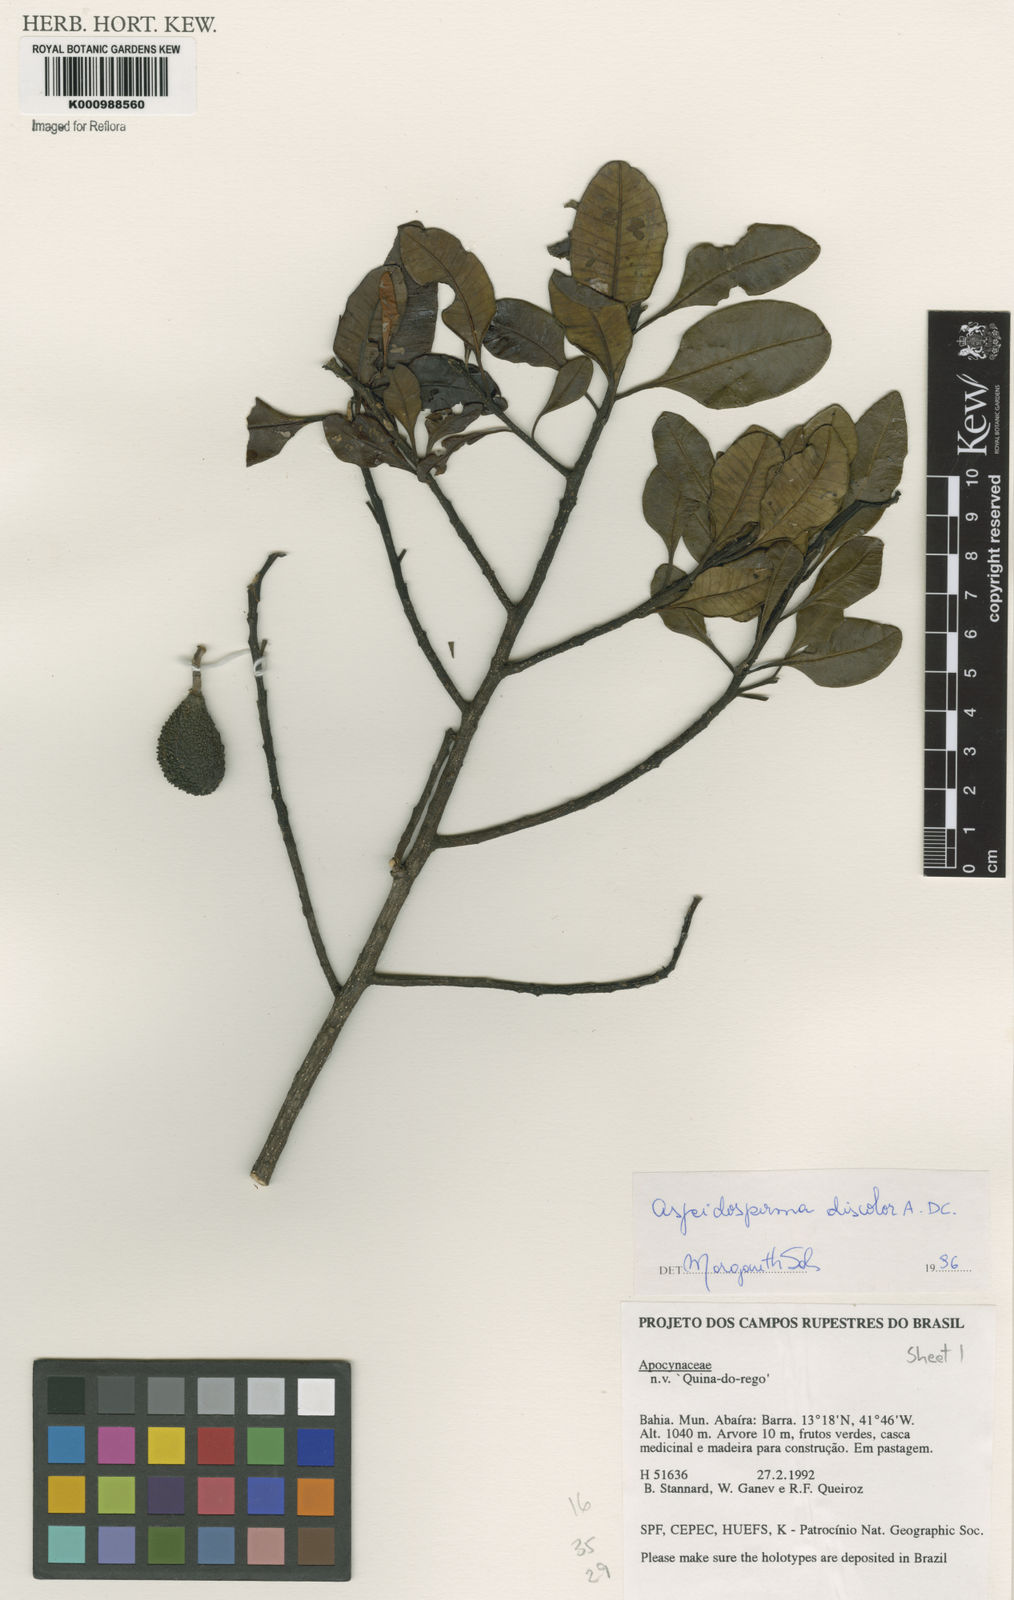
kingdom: Plantae
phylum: Tracheophyta
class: Magnoliopsida
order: Gentianales
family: Apocynaceae
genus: Aspidosperma
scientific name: Aspidosperma discolor
